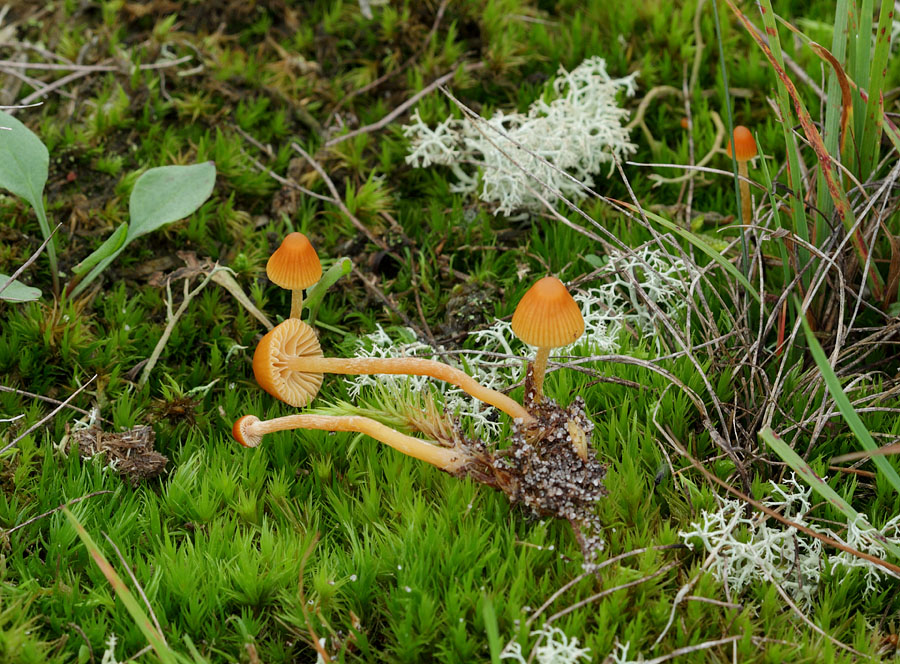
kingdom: Fungi
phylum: Basidiomycota
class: Agaricomycetes
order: Agaricales
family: Hymenogastraceae
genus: Galerina
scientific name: Galerina calyptrata
